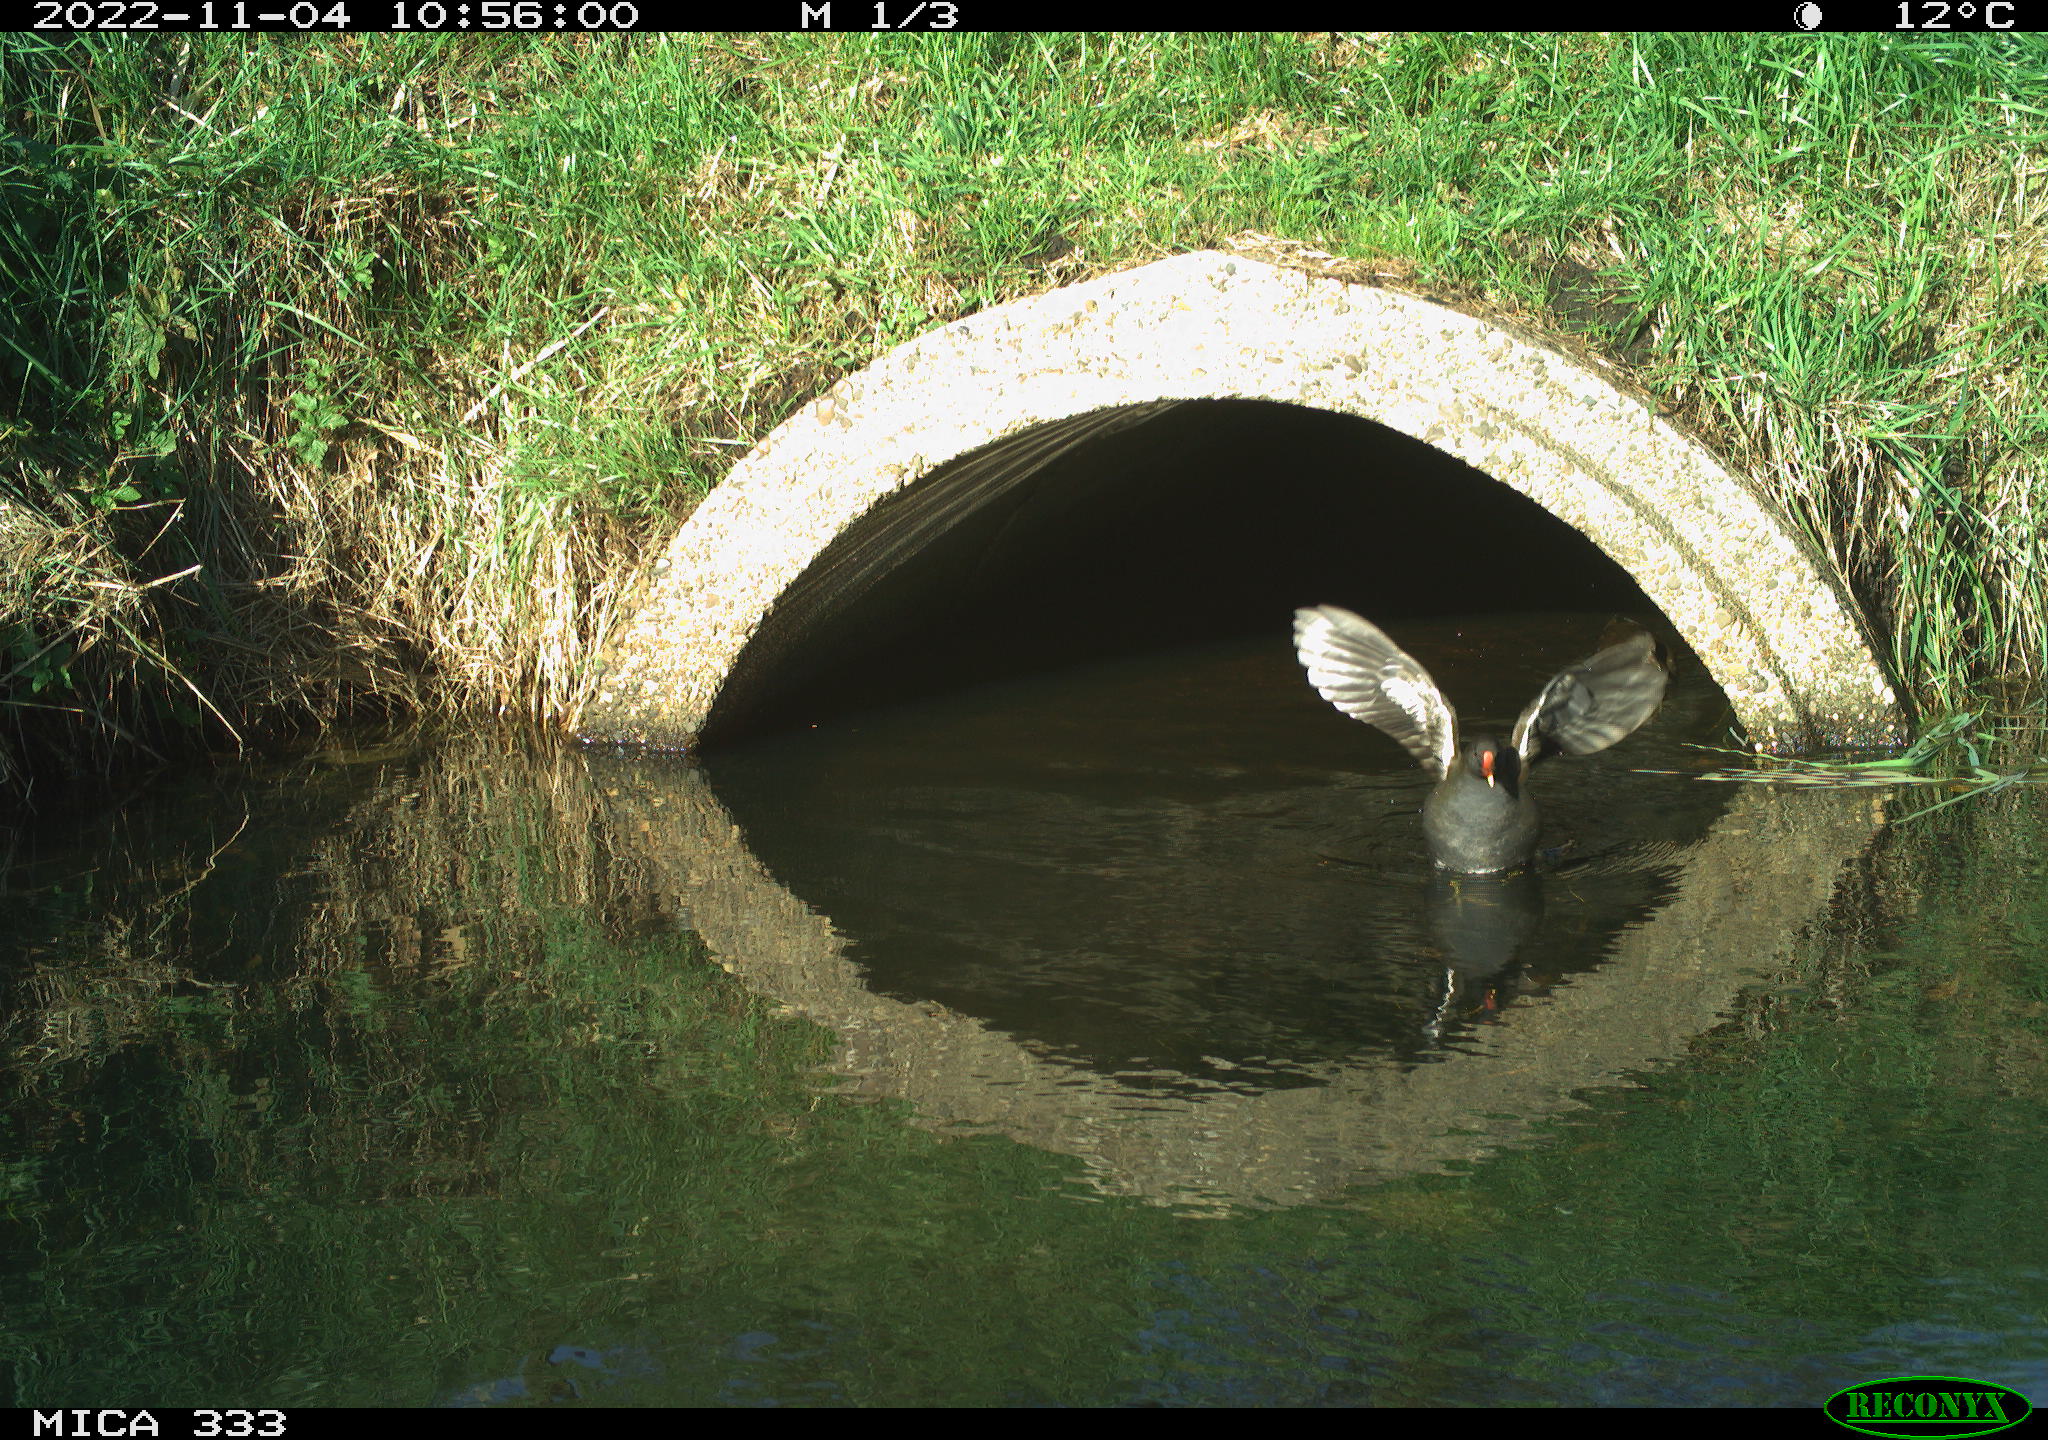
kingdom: Animalia
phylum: Chordata
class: Aves
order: Gruiformes
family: Rallidae
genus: Gallinula
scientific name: Gallinula chloropus
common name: Common moorhen
